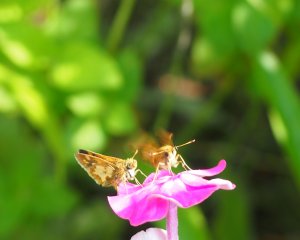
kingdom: Animalia
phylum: Arthropoda
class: Insecta
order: Lepidoptera
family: Hesperiidae
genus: Polites
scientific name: Polites coras
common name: Peck's Skipper
